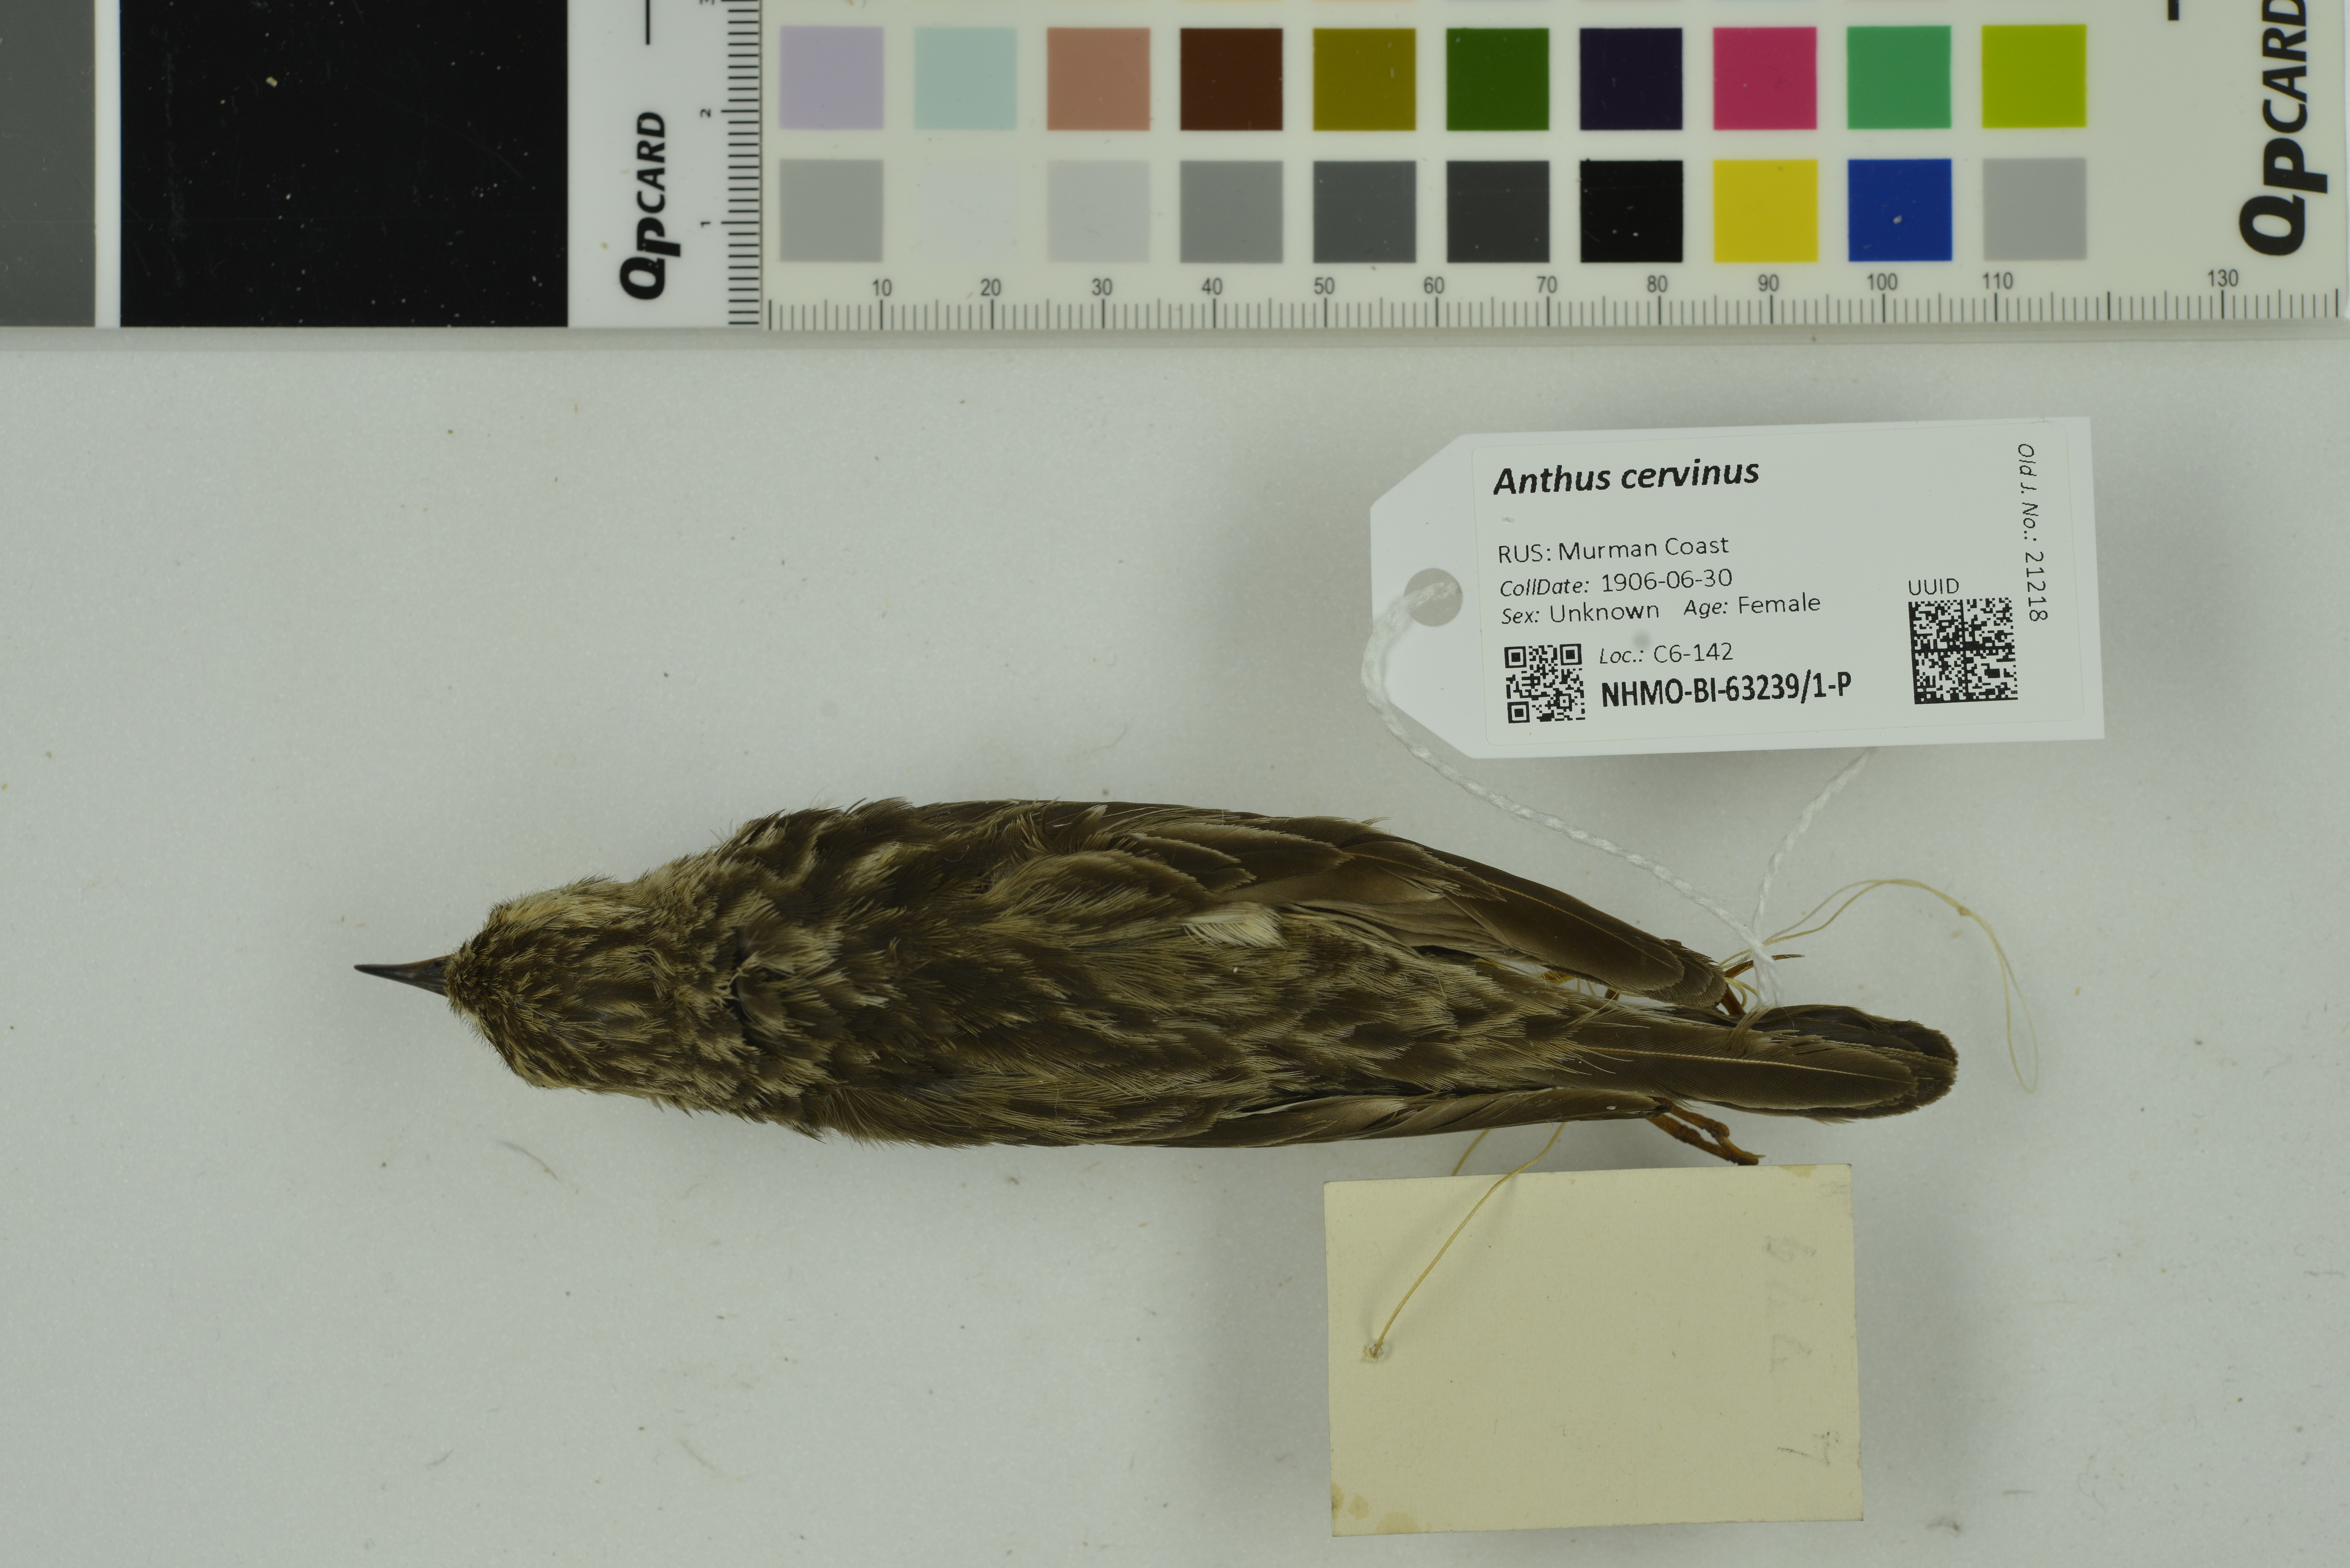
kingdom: Animalia
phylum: Chordata
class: Aves
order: Passeriformes
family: Motacillidae
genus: Anthus
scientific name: Anthus cervinus
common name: Red-throated pipit
